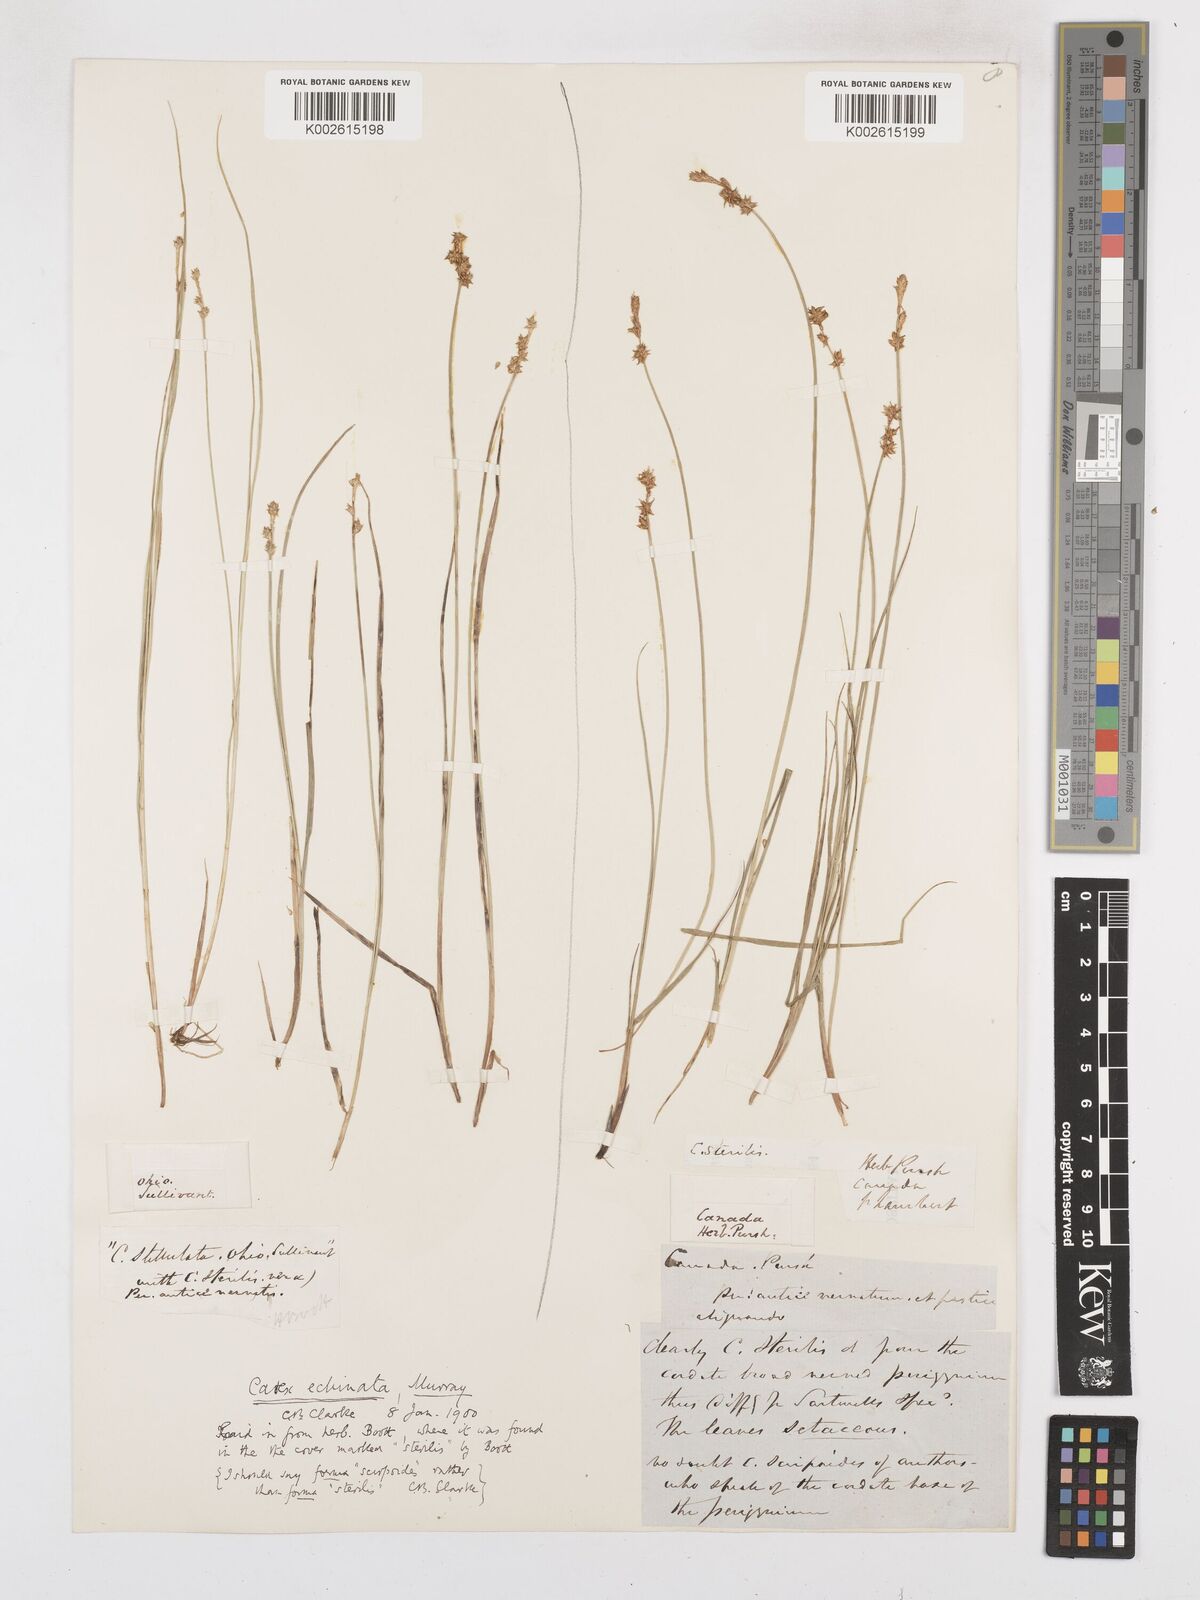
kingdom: Plantae
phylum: Tracheophyta
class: Liliopsida
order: Poales
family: Cyperaceae
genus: Carex
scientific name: Carex echinata
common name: Star sedge
